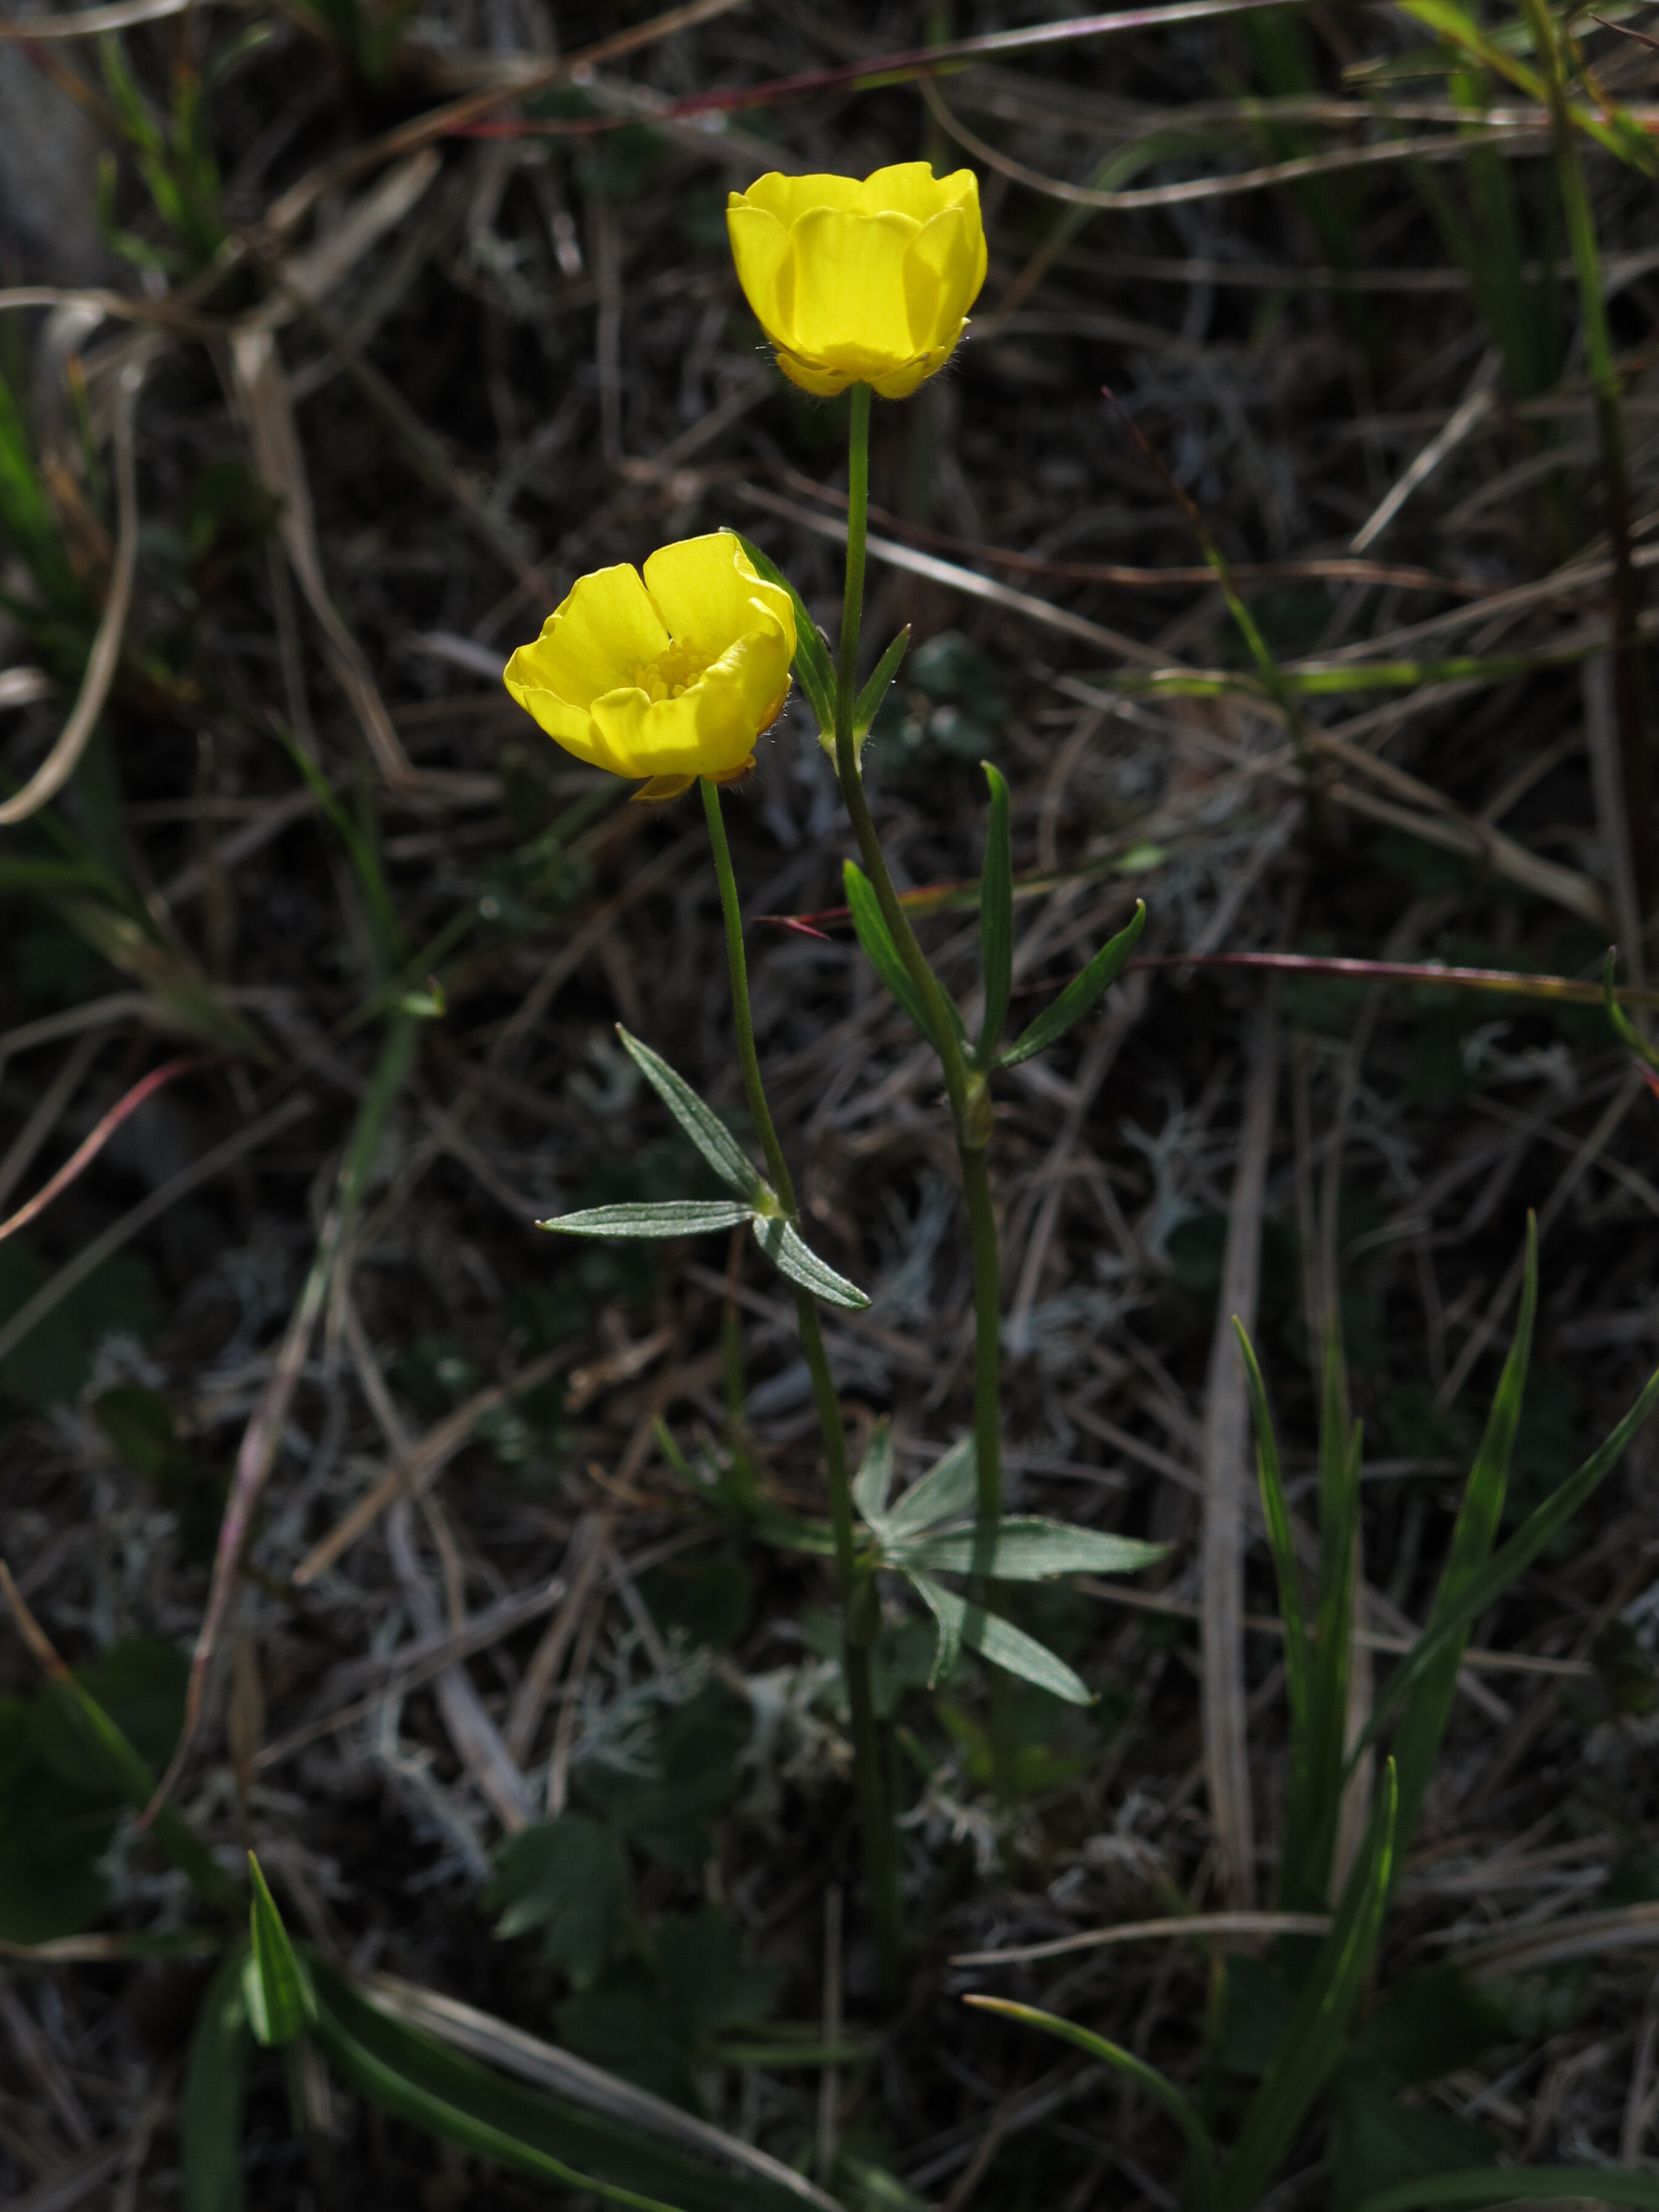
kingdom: Plantae
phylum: Tracheophyta
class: Magnoliopsida
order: Ranunculales
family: Ranunculaceae
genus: Ranunculus
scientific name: Ranunculus propinquus
